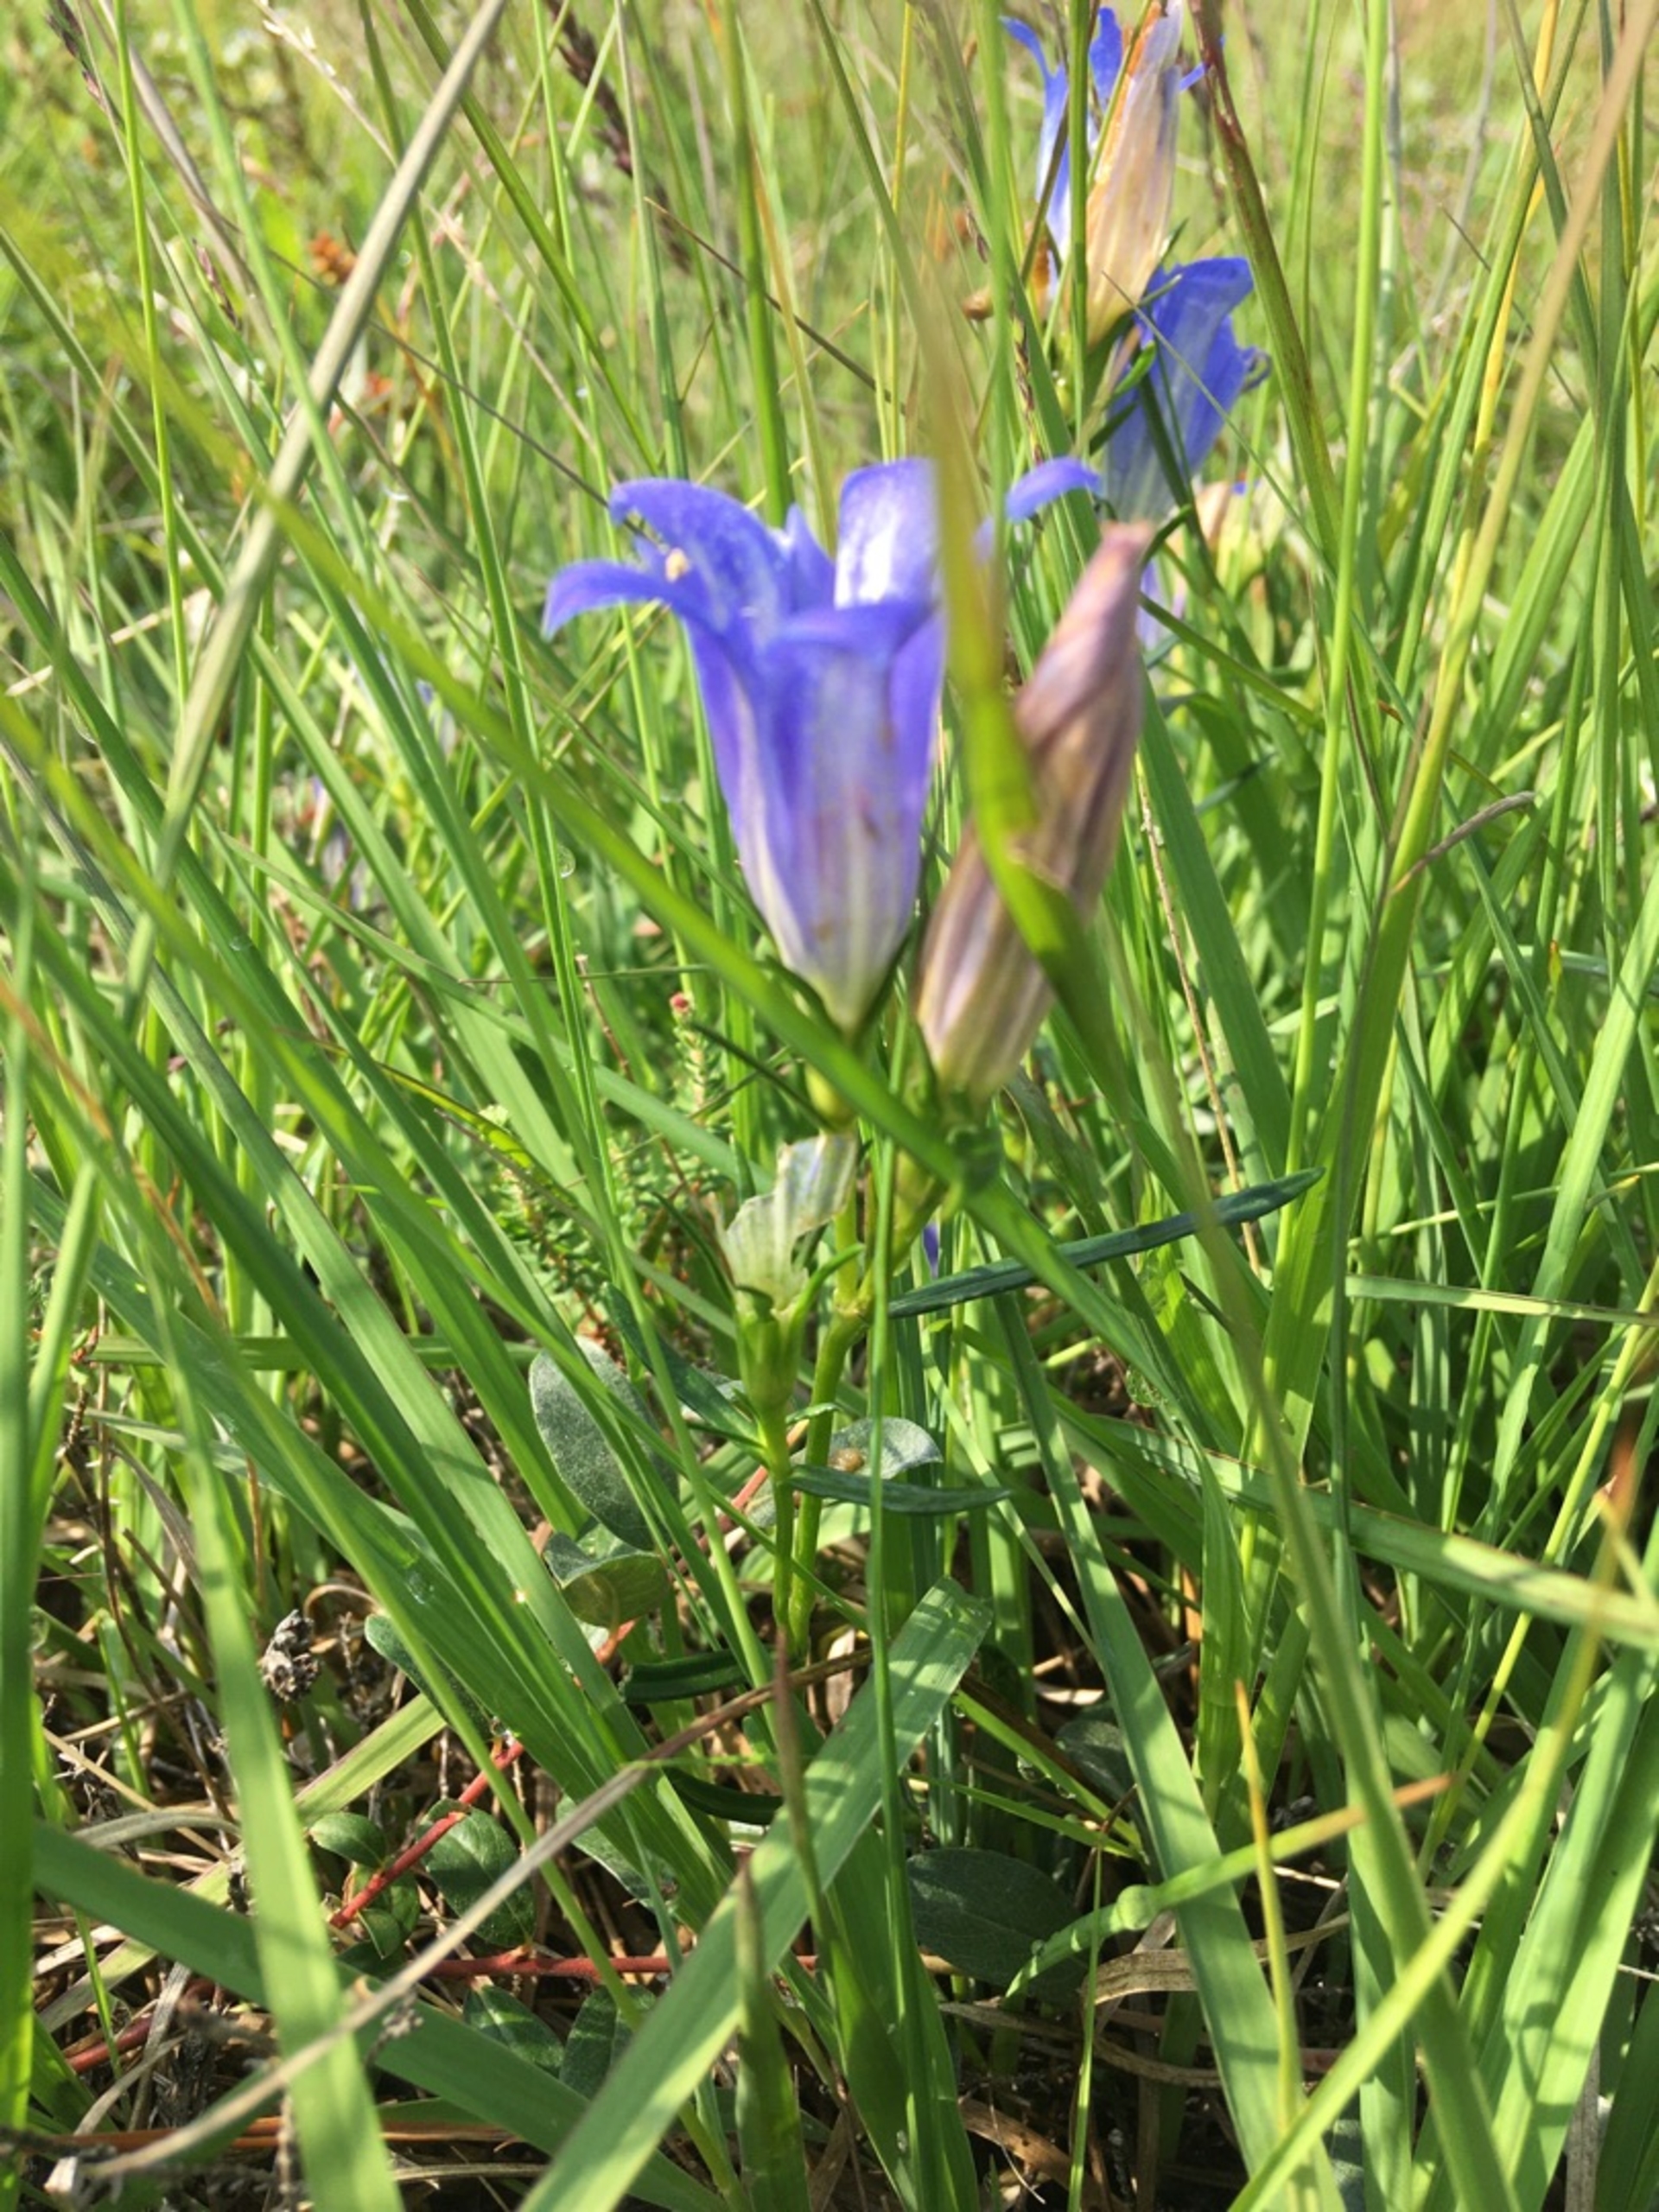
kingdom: Plantae
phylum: Tracheophyta
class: Magnoliopsida
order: Gentianales
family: Gentianaceae
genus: Gentiana
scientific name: Gentiana pneumonanthe
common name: Klokke-ensian
